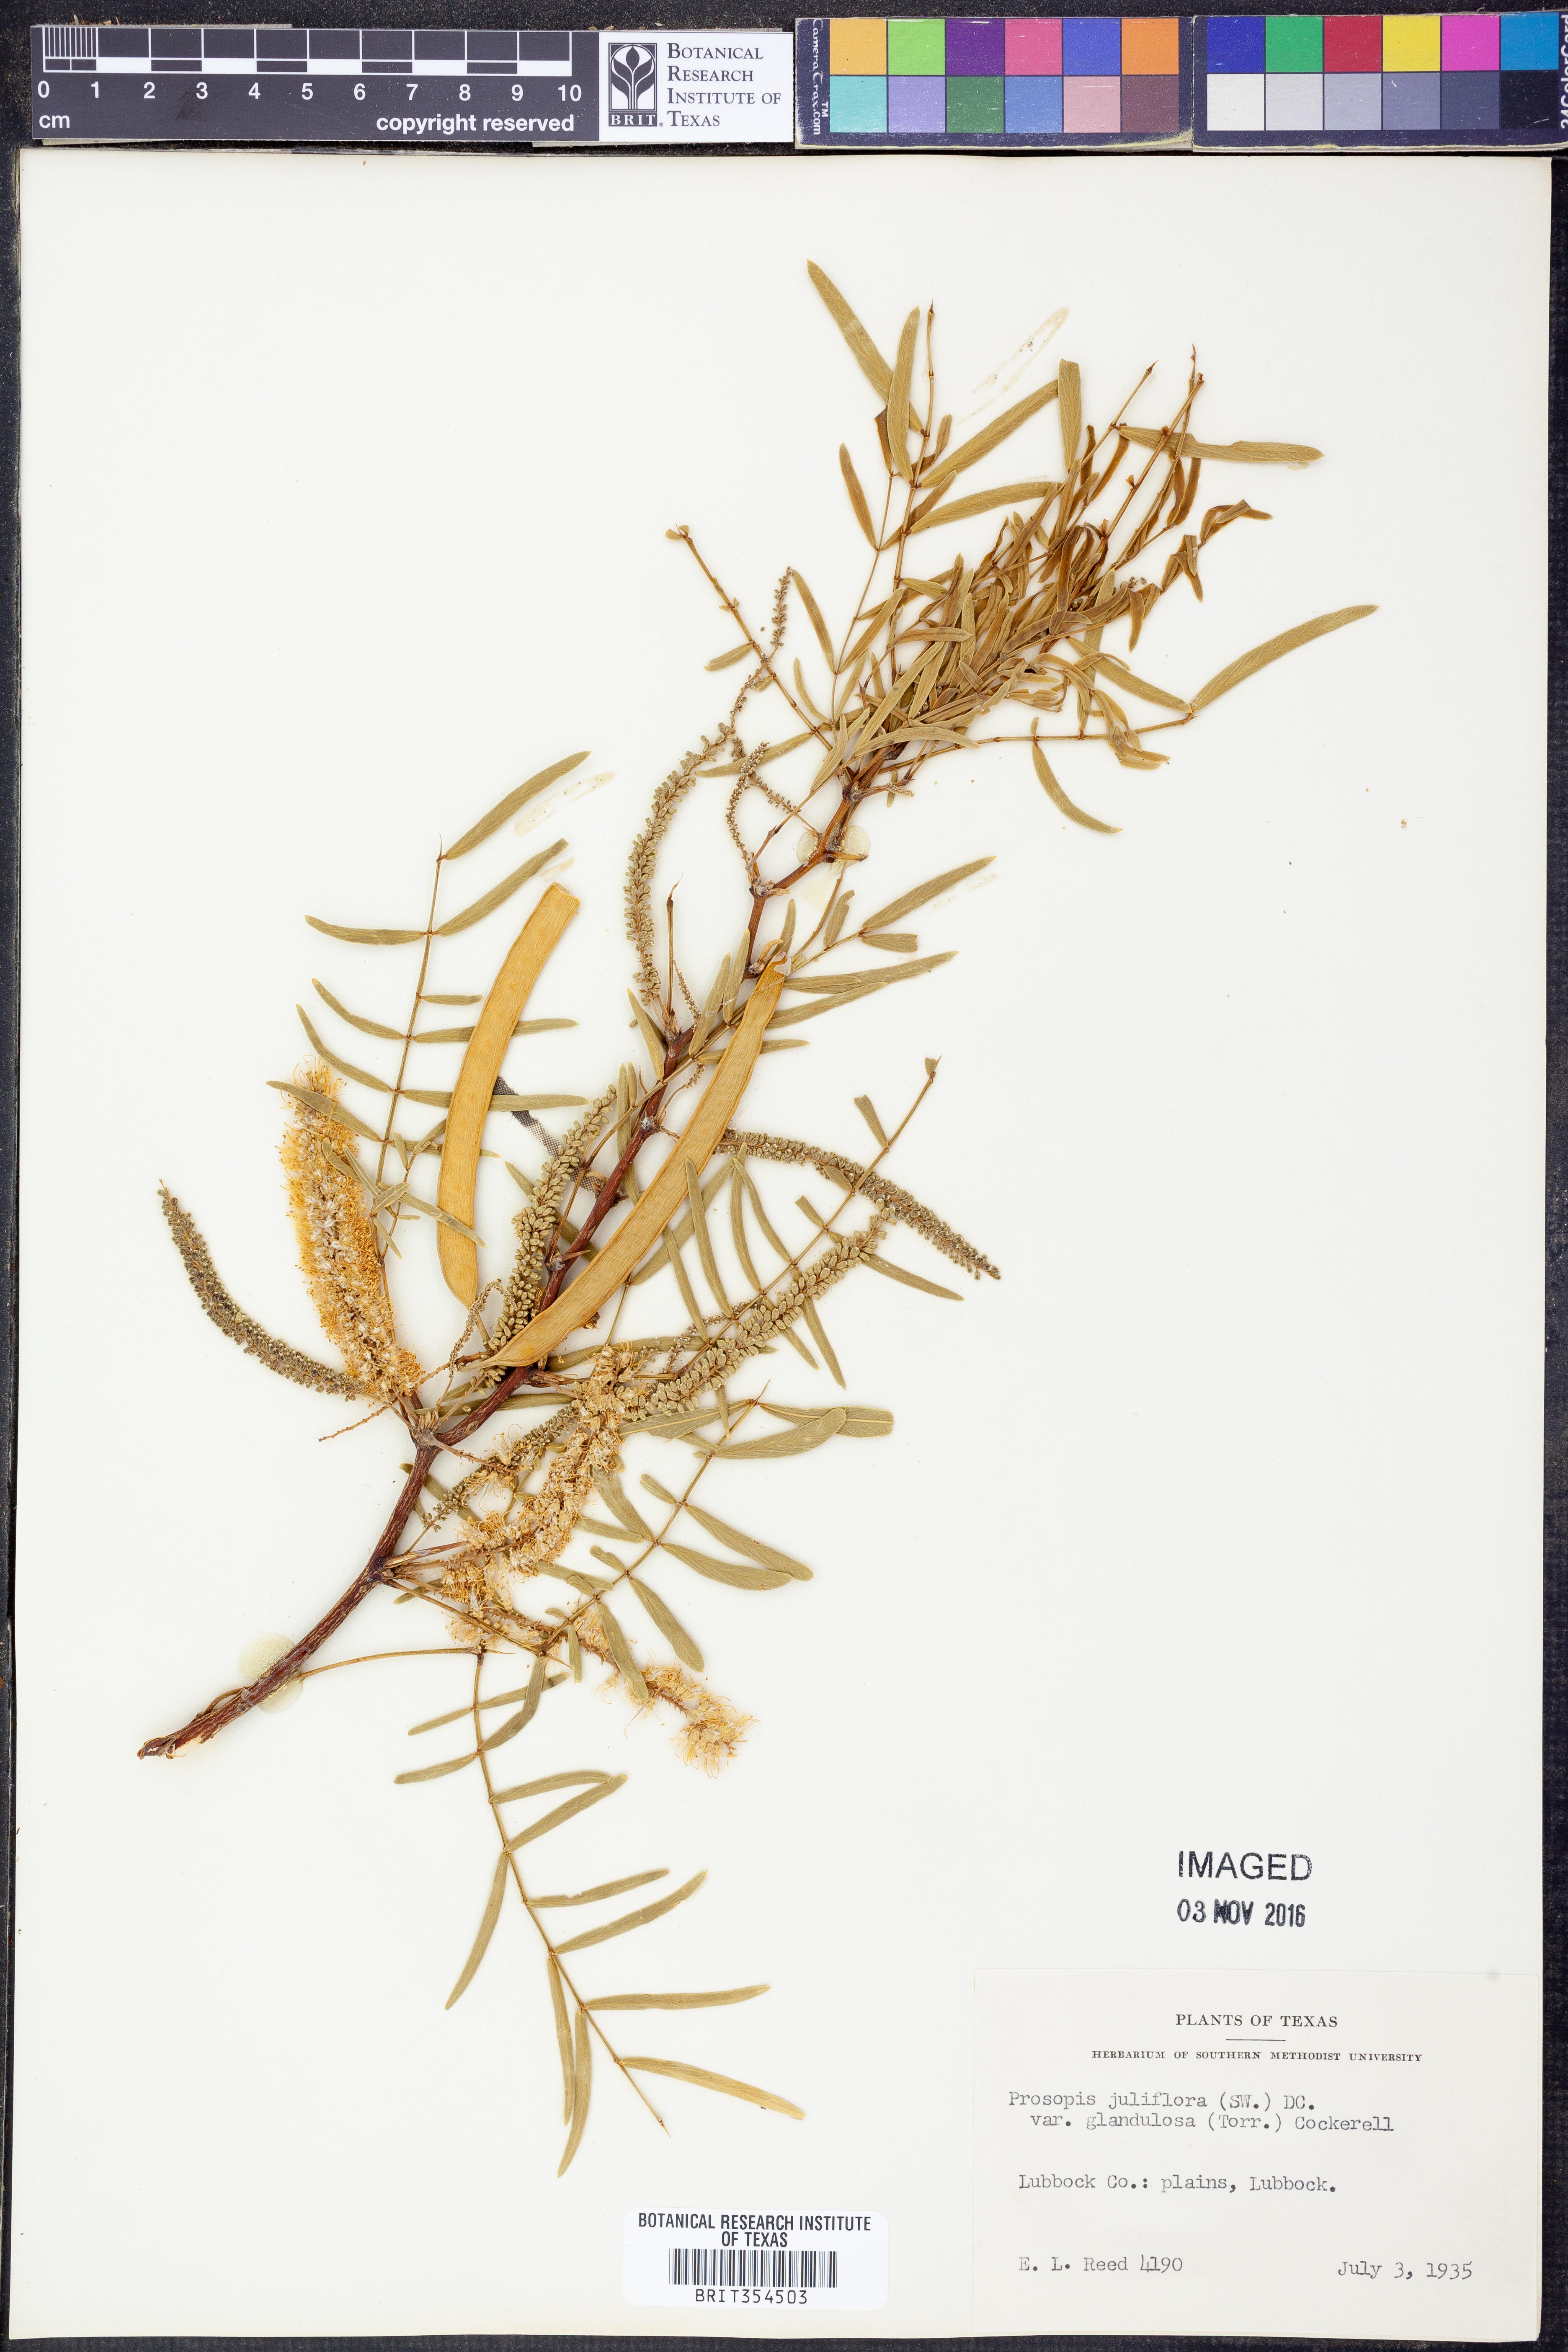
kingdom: Plantae
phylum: Tracheophyta
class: Magnoliopsida
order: Fabales
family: Fabaceae
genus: Prosopis
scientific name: Prosopis glandulosa
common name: Honey mesquite
